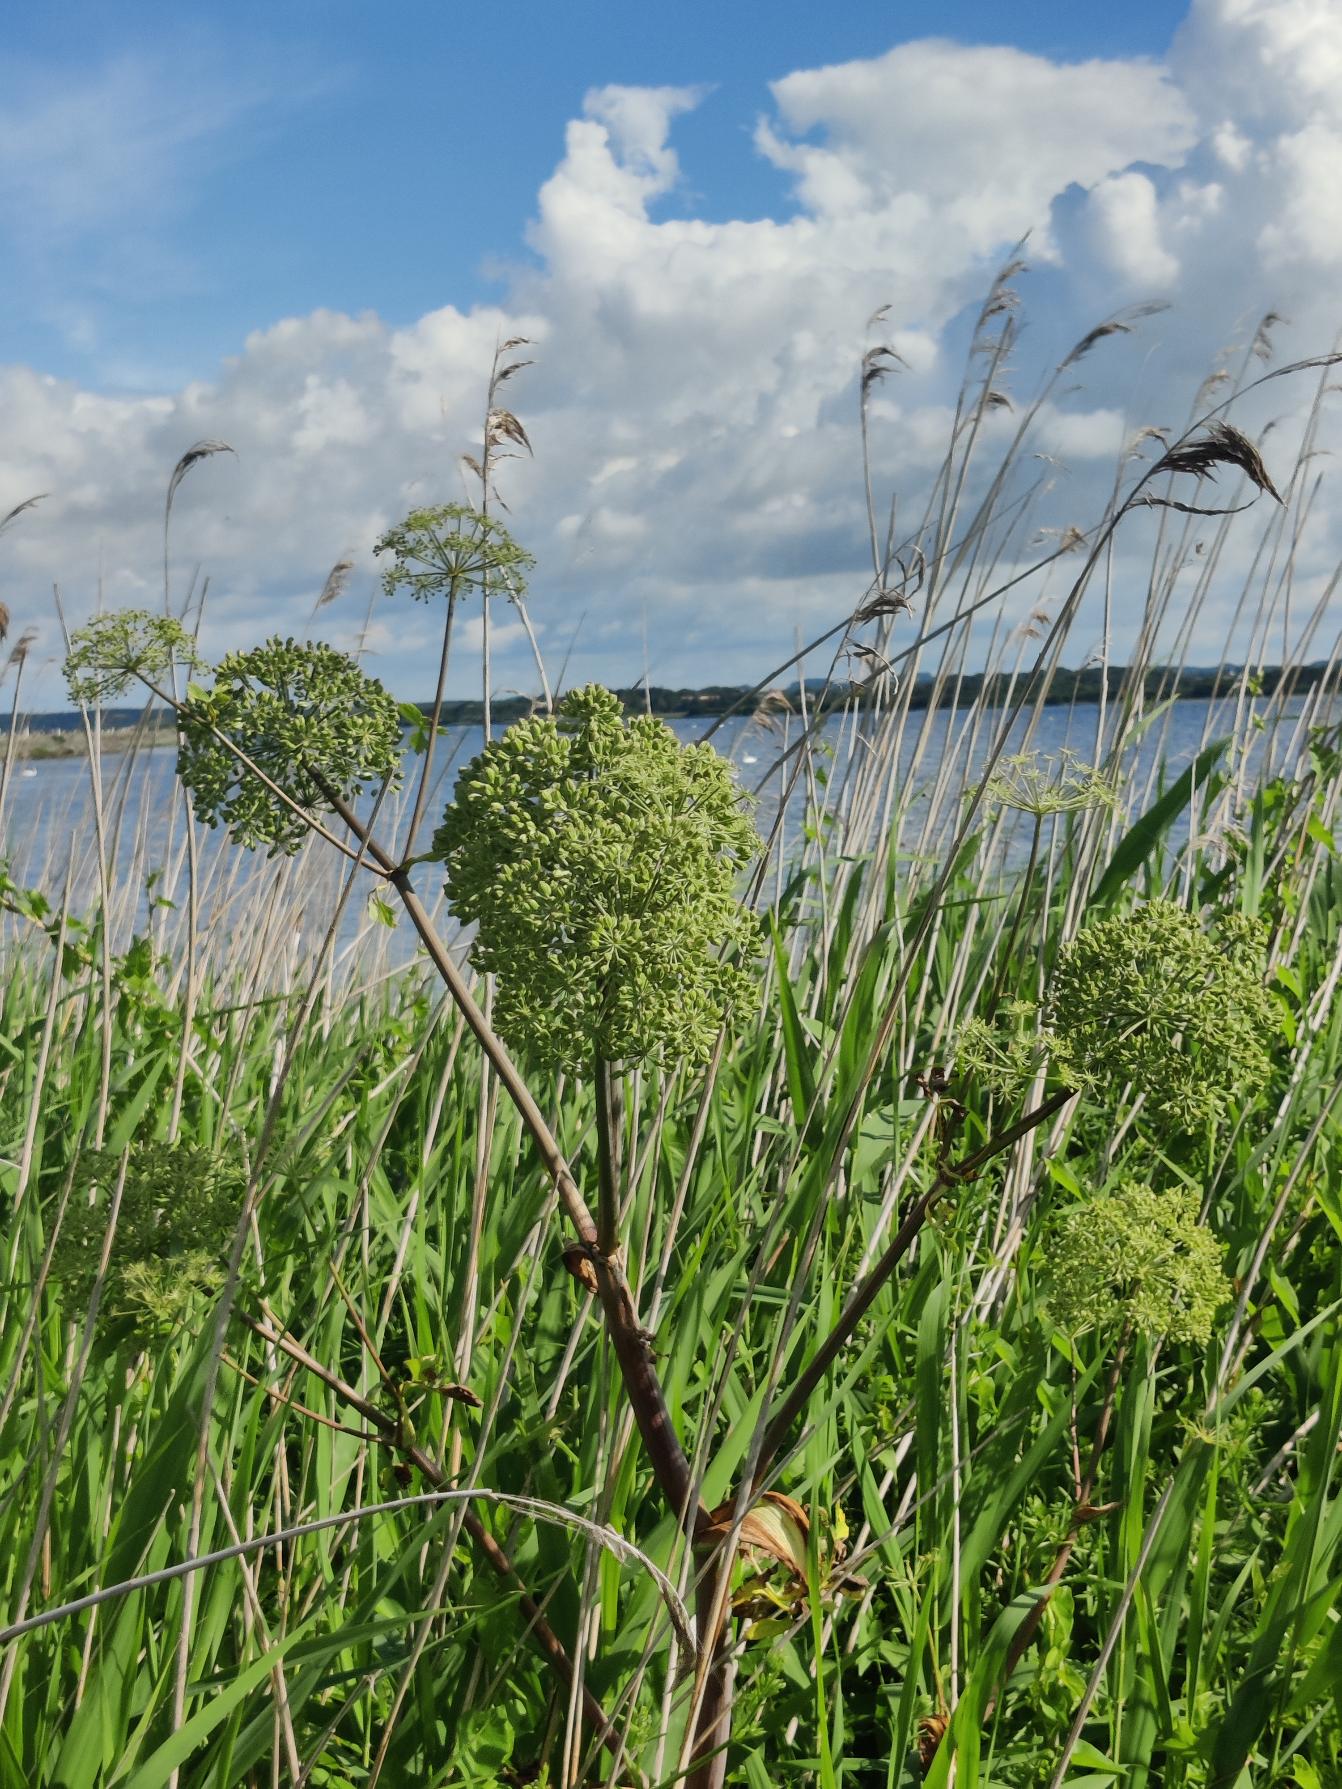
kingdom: Plantae
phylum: Tracheophyta
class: Magnoliopsida
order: Apiales
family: Apiaceae
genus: Angelica
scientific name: Angelica archangelica
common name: Kvan
